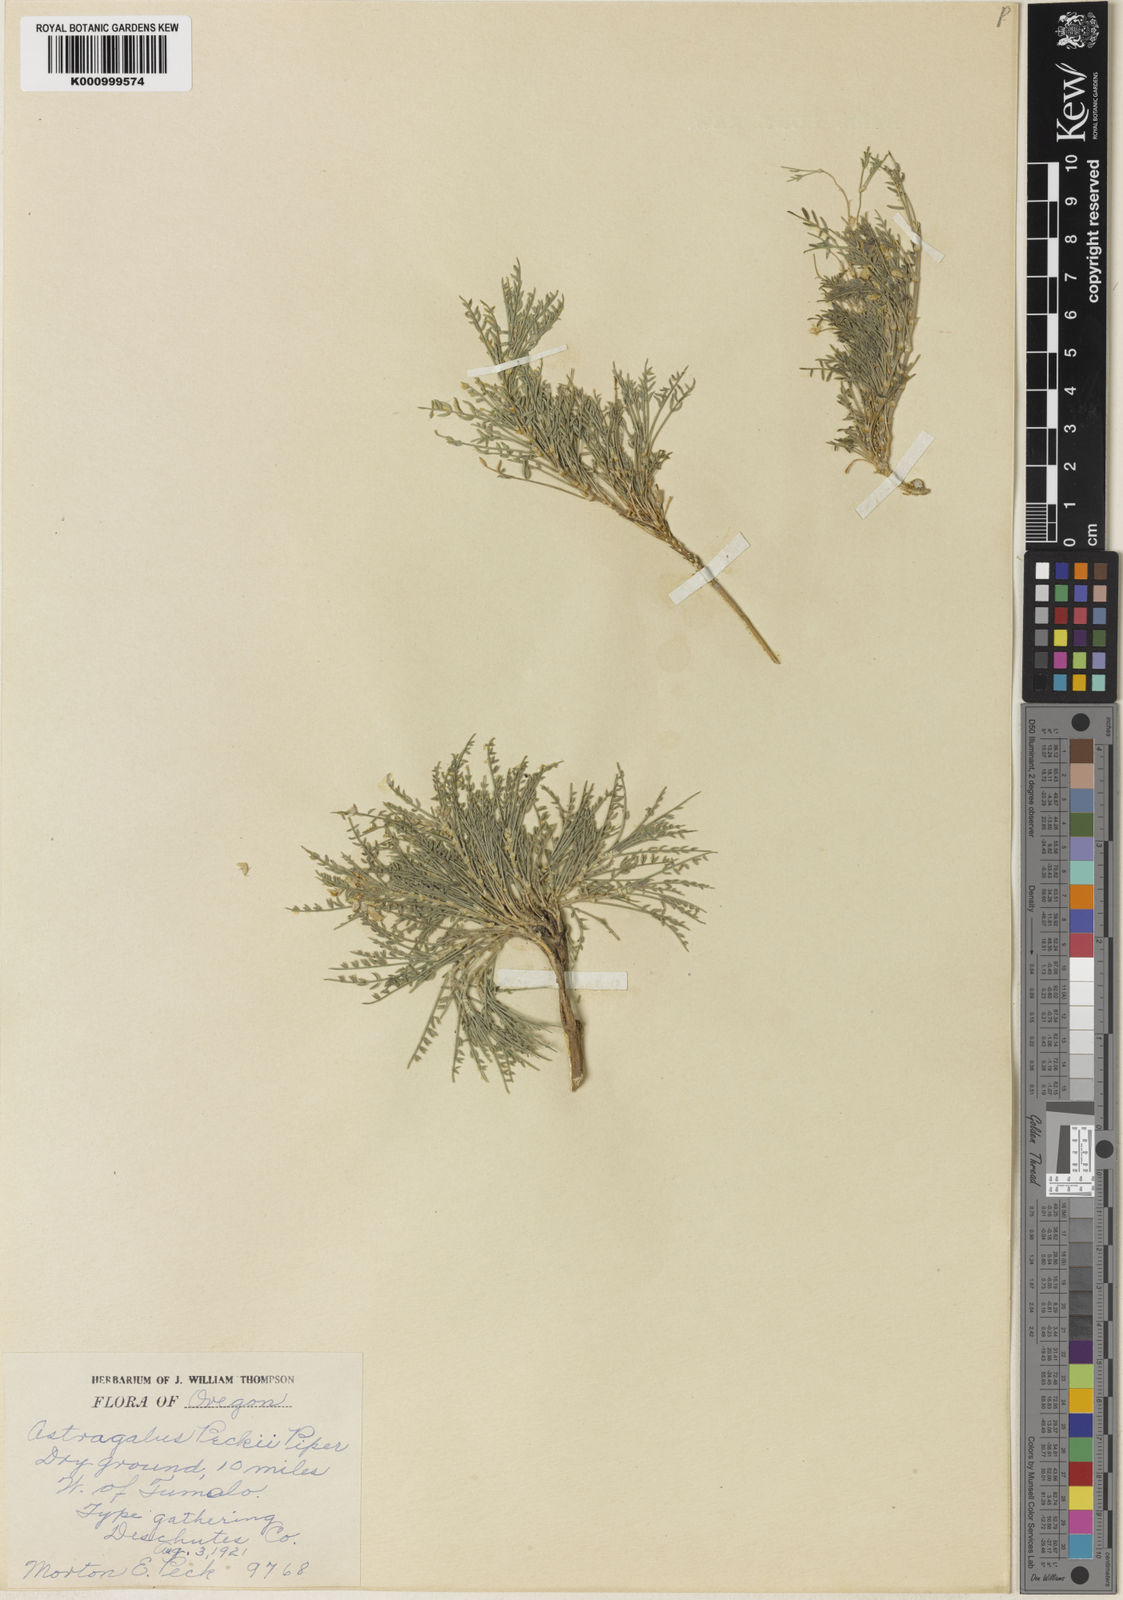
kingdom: Plantae
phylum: Tracheophyta
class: Magnoliopsida
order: Fabales
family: Fabaceae
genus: Astragalus
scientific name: Astragalus peckii
